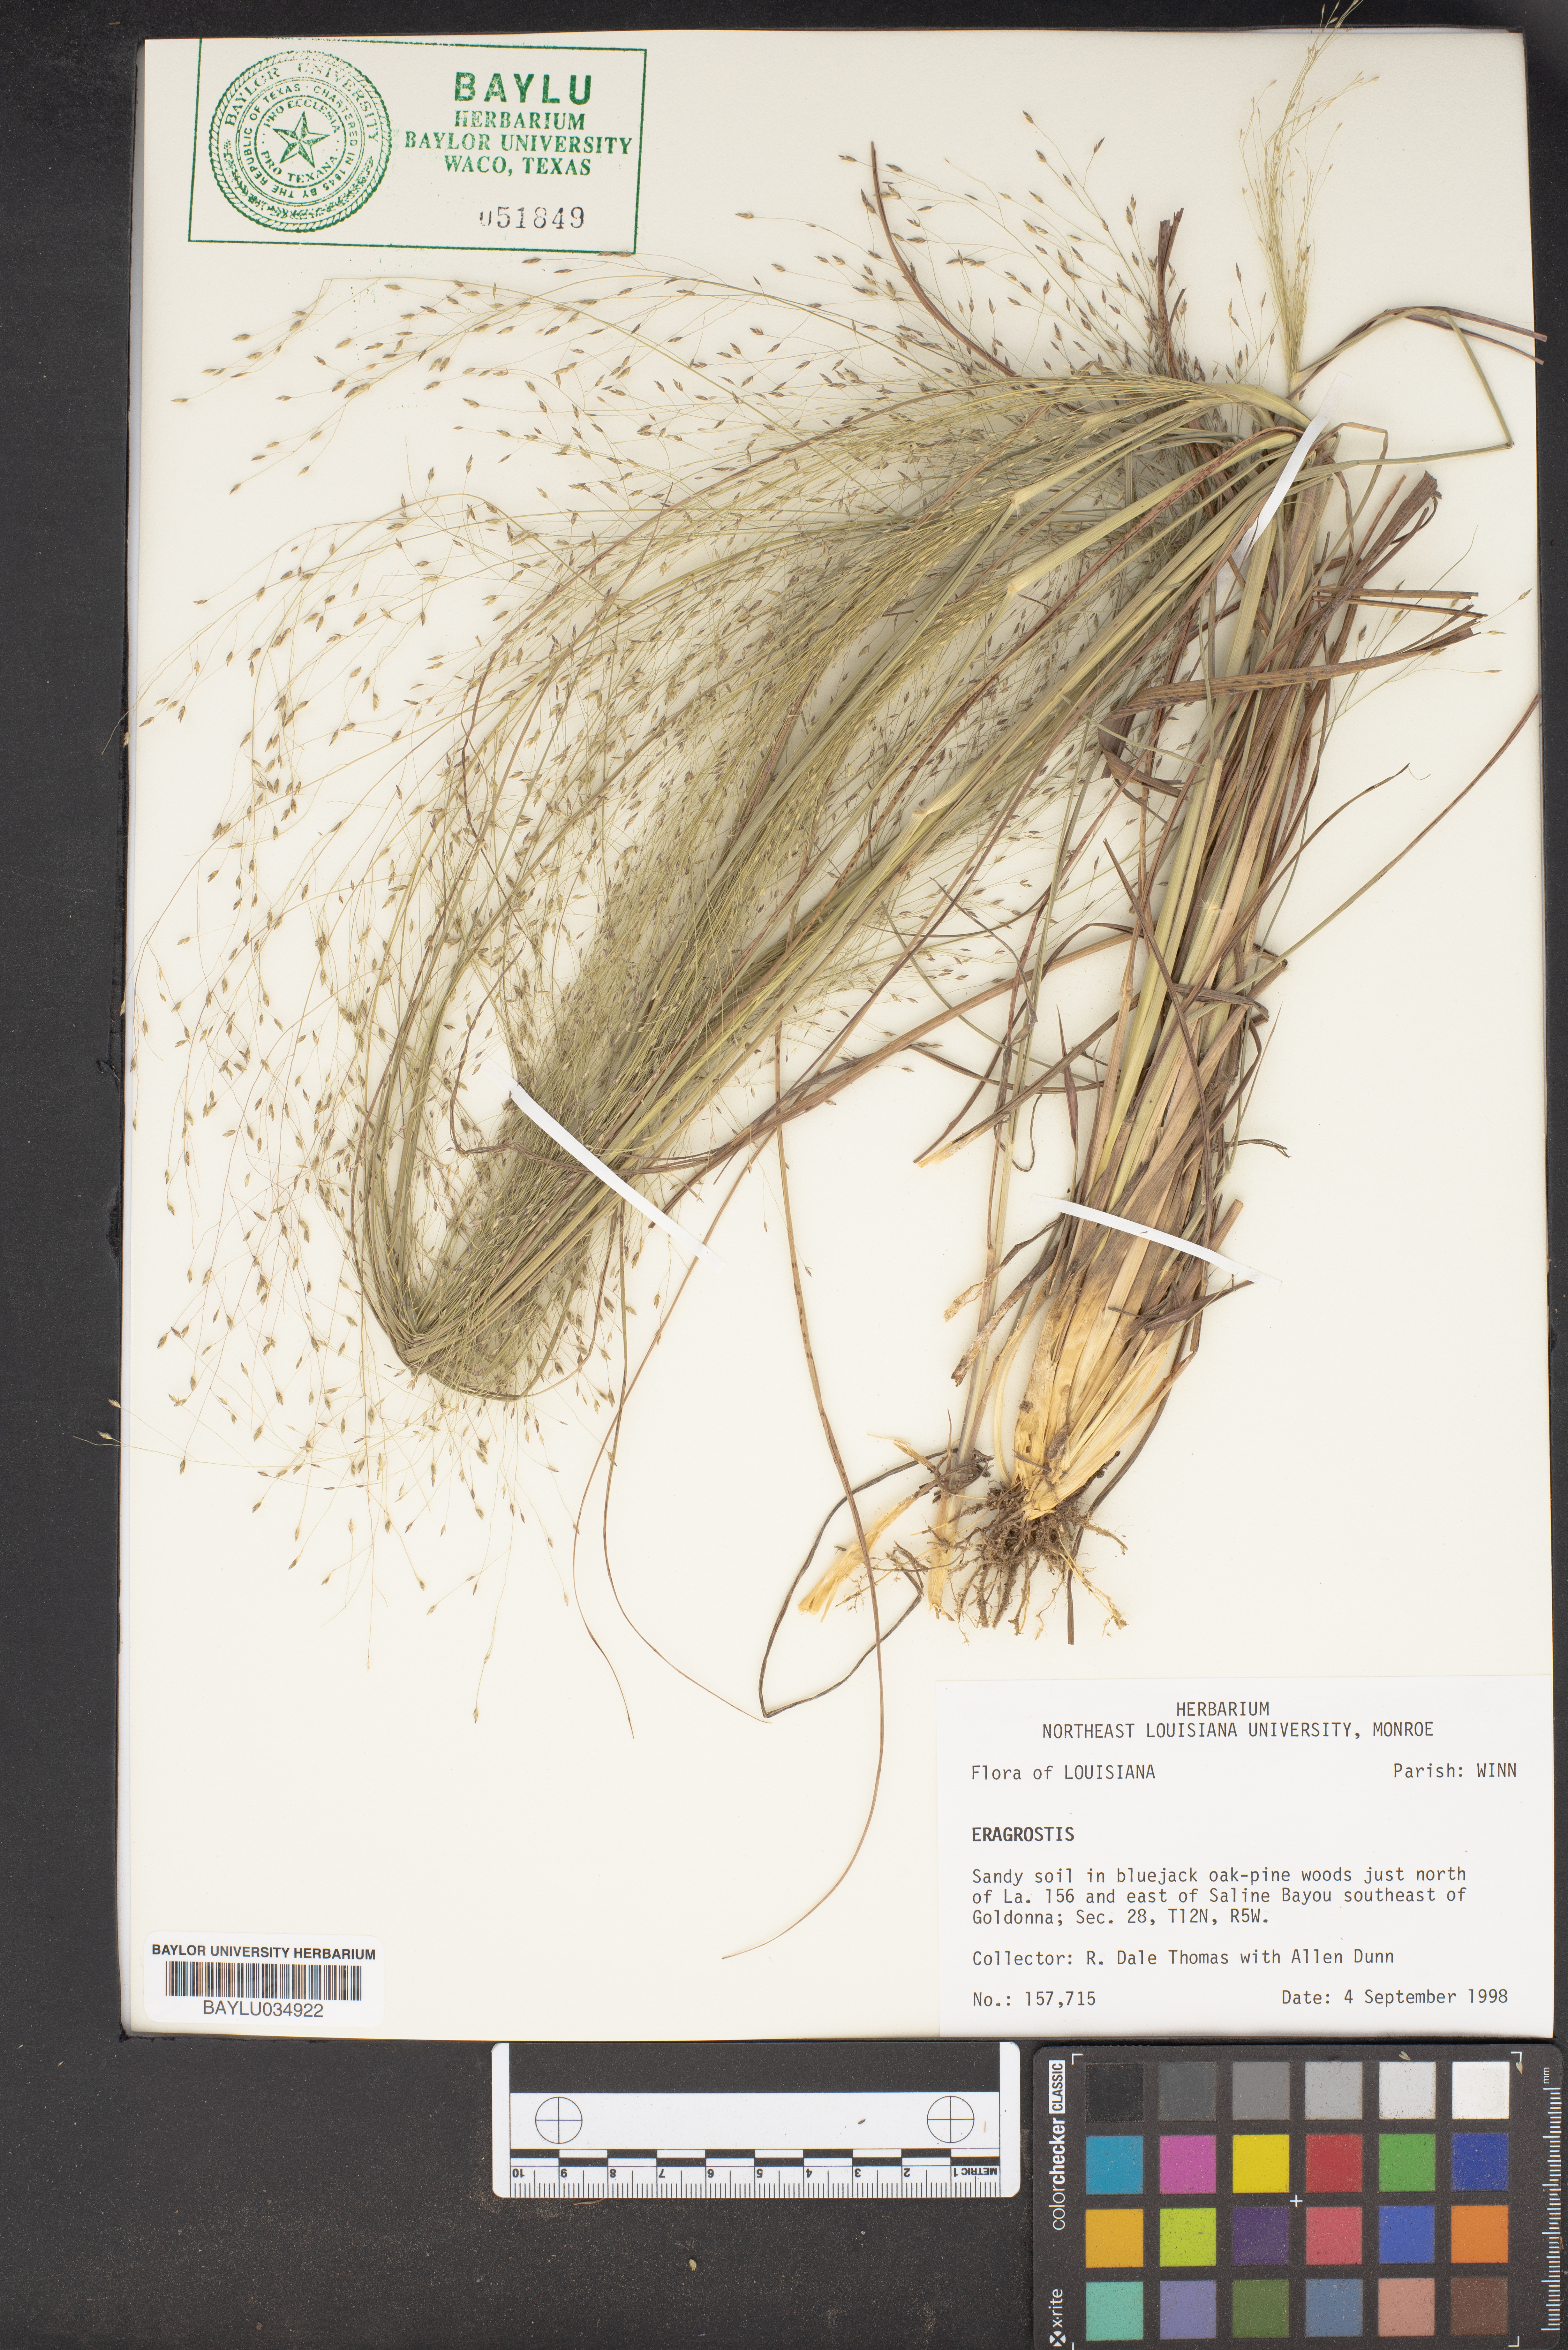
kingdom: Plantae
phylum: Tracheophyta
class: Liliopsida
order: Poales
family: Poaceae
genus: Eragrostis
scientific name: Eragrostis
